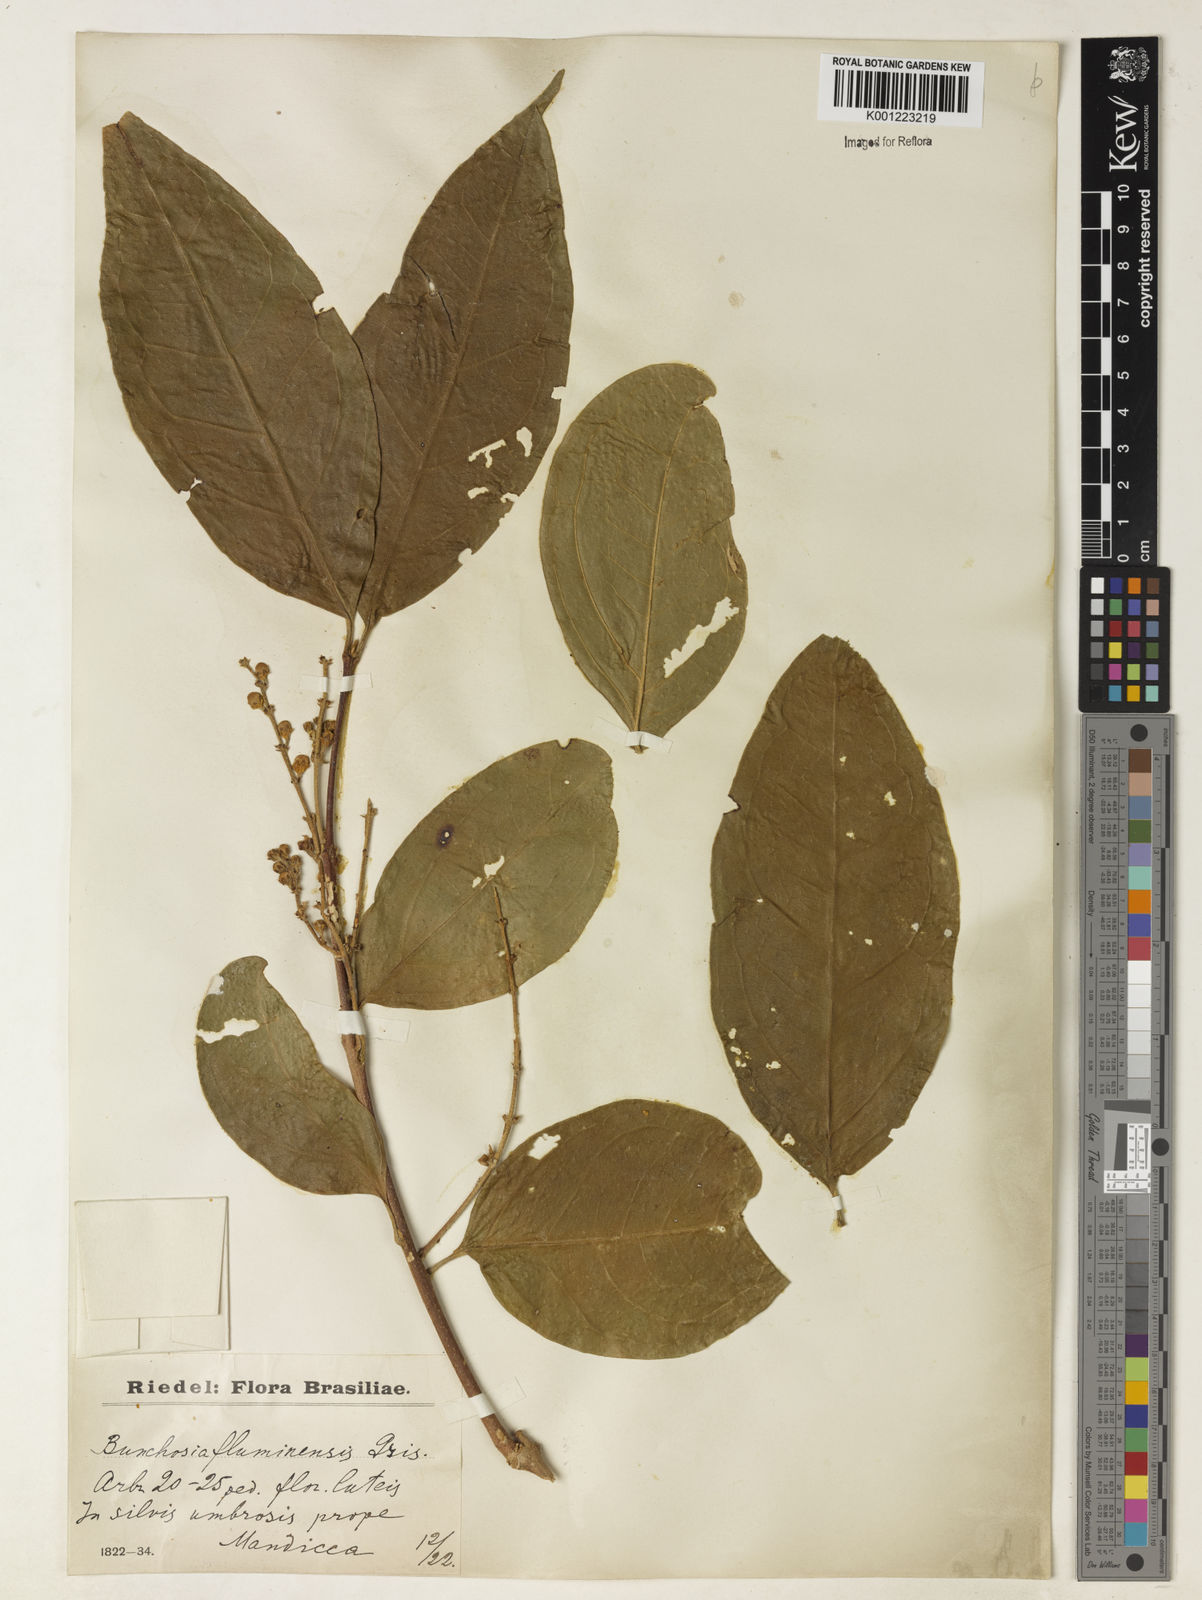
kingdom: Plantae
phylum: Tracheophyta
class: Magnoliopsida
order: Malpighiales
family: Malpighiaceae
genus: Bunchosia
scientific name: Bunchosia fluminensis
